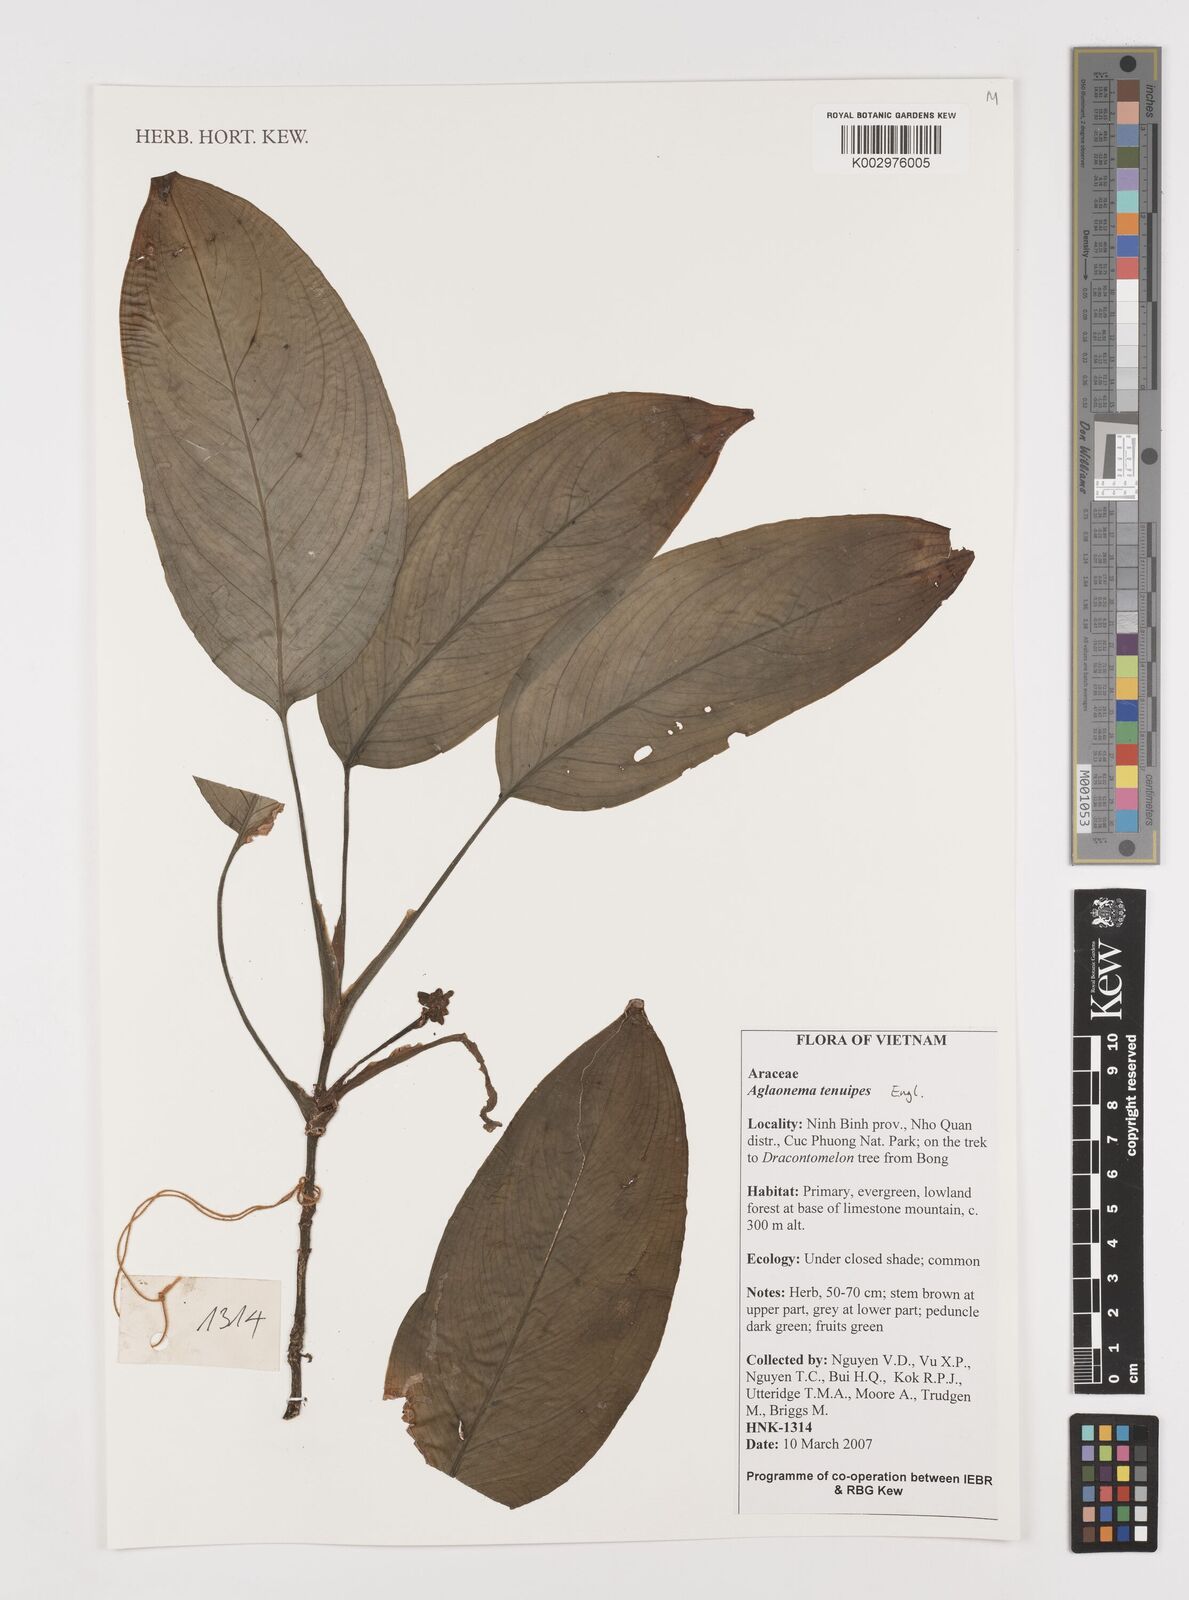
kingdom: Plantae
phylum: Tracheophyta
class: Liliopsida
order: Alismatales
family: Araceae
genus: Aglaonema
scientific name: Aglaonema simplex
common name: Malayan-sword
